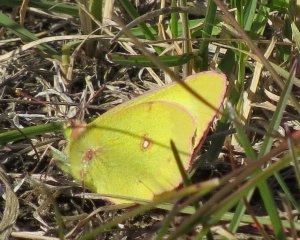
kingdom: Animalia
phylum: Arthropoda
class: Insecta
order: Lepidoptera
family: Pieridae
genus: Colias
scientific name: Colias philodice
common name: Clouded Sulphur
